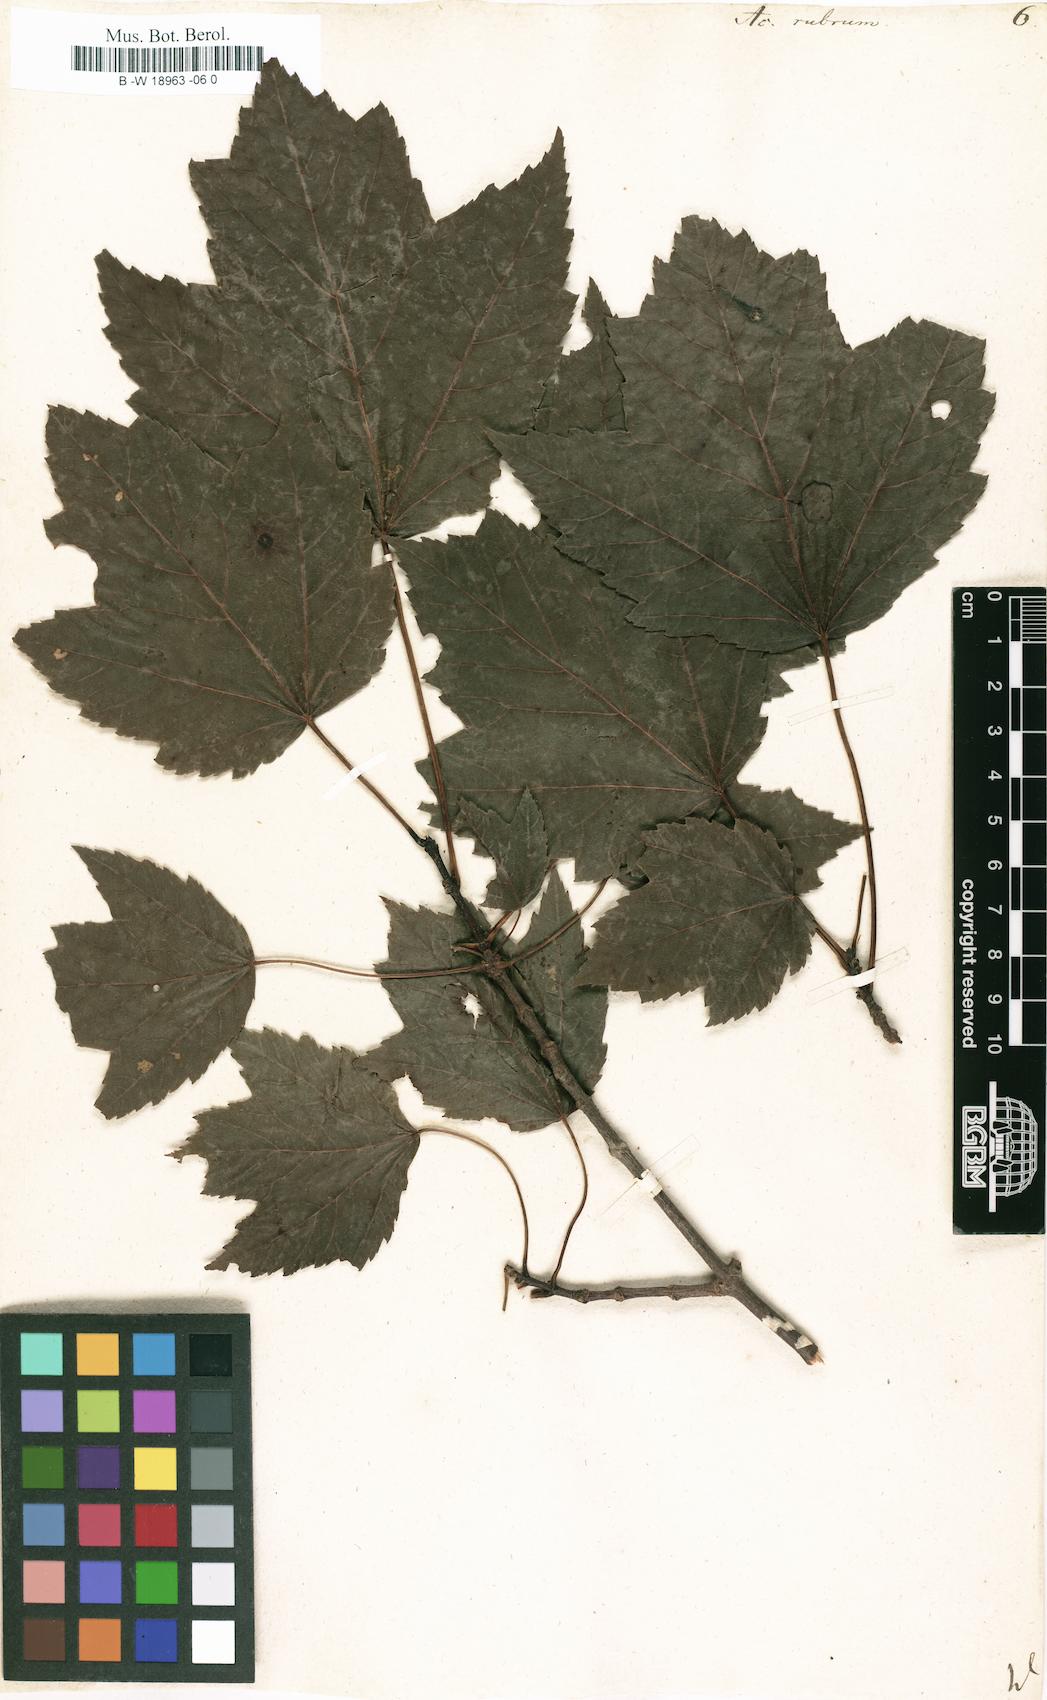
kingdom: Plantae
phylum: Tracheophyta
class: Magnoliopsida
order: Sapindales
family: Sapindaceae
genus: Acer
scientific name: Acer rubrum
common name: Red maple
